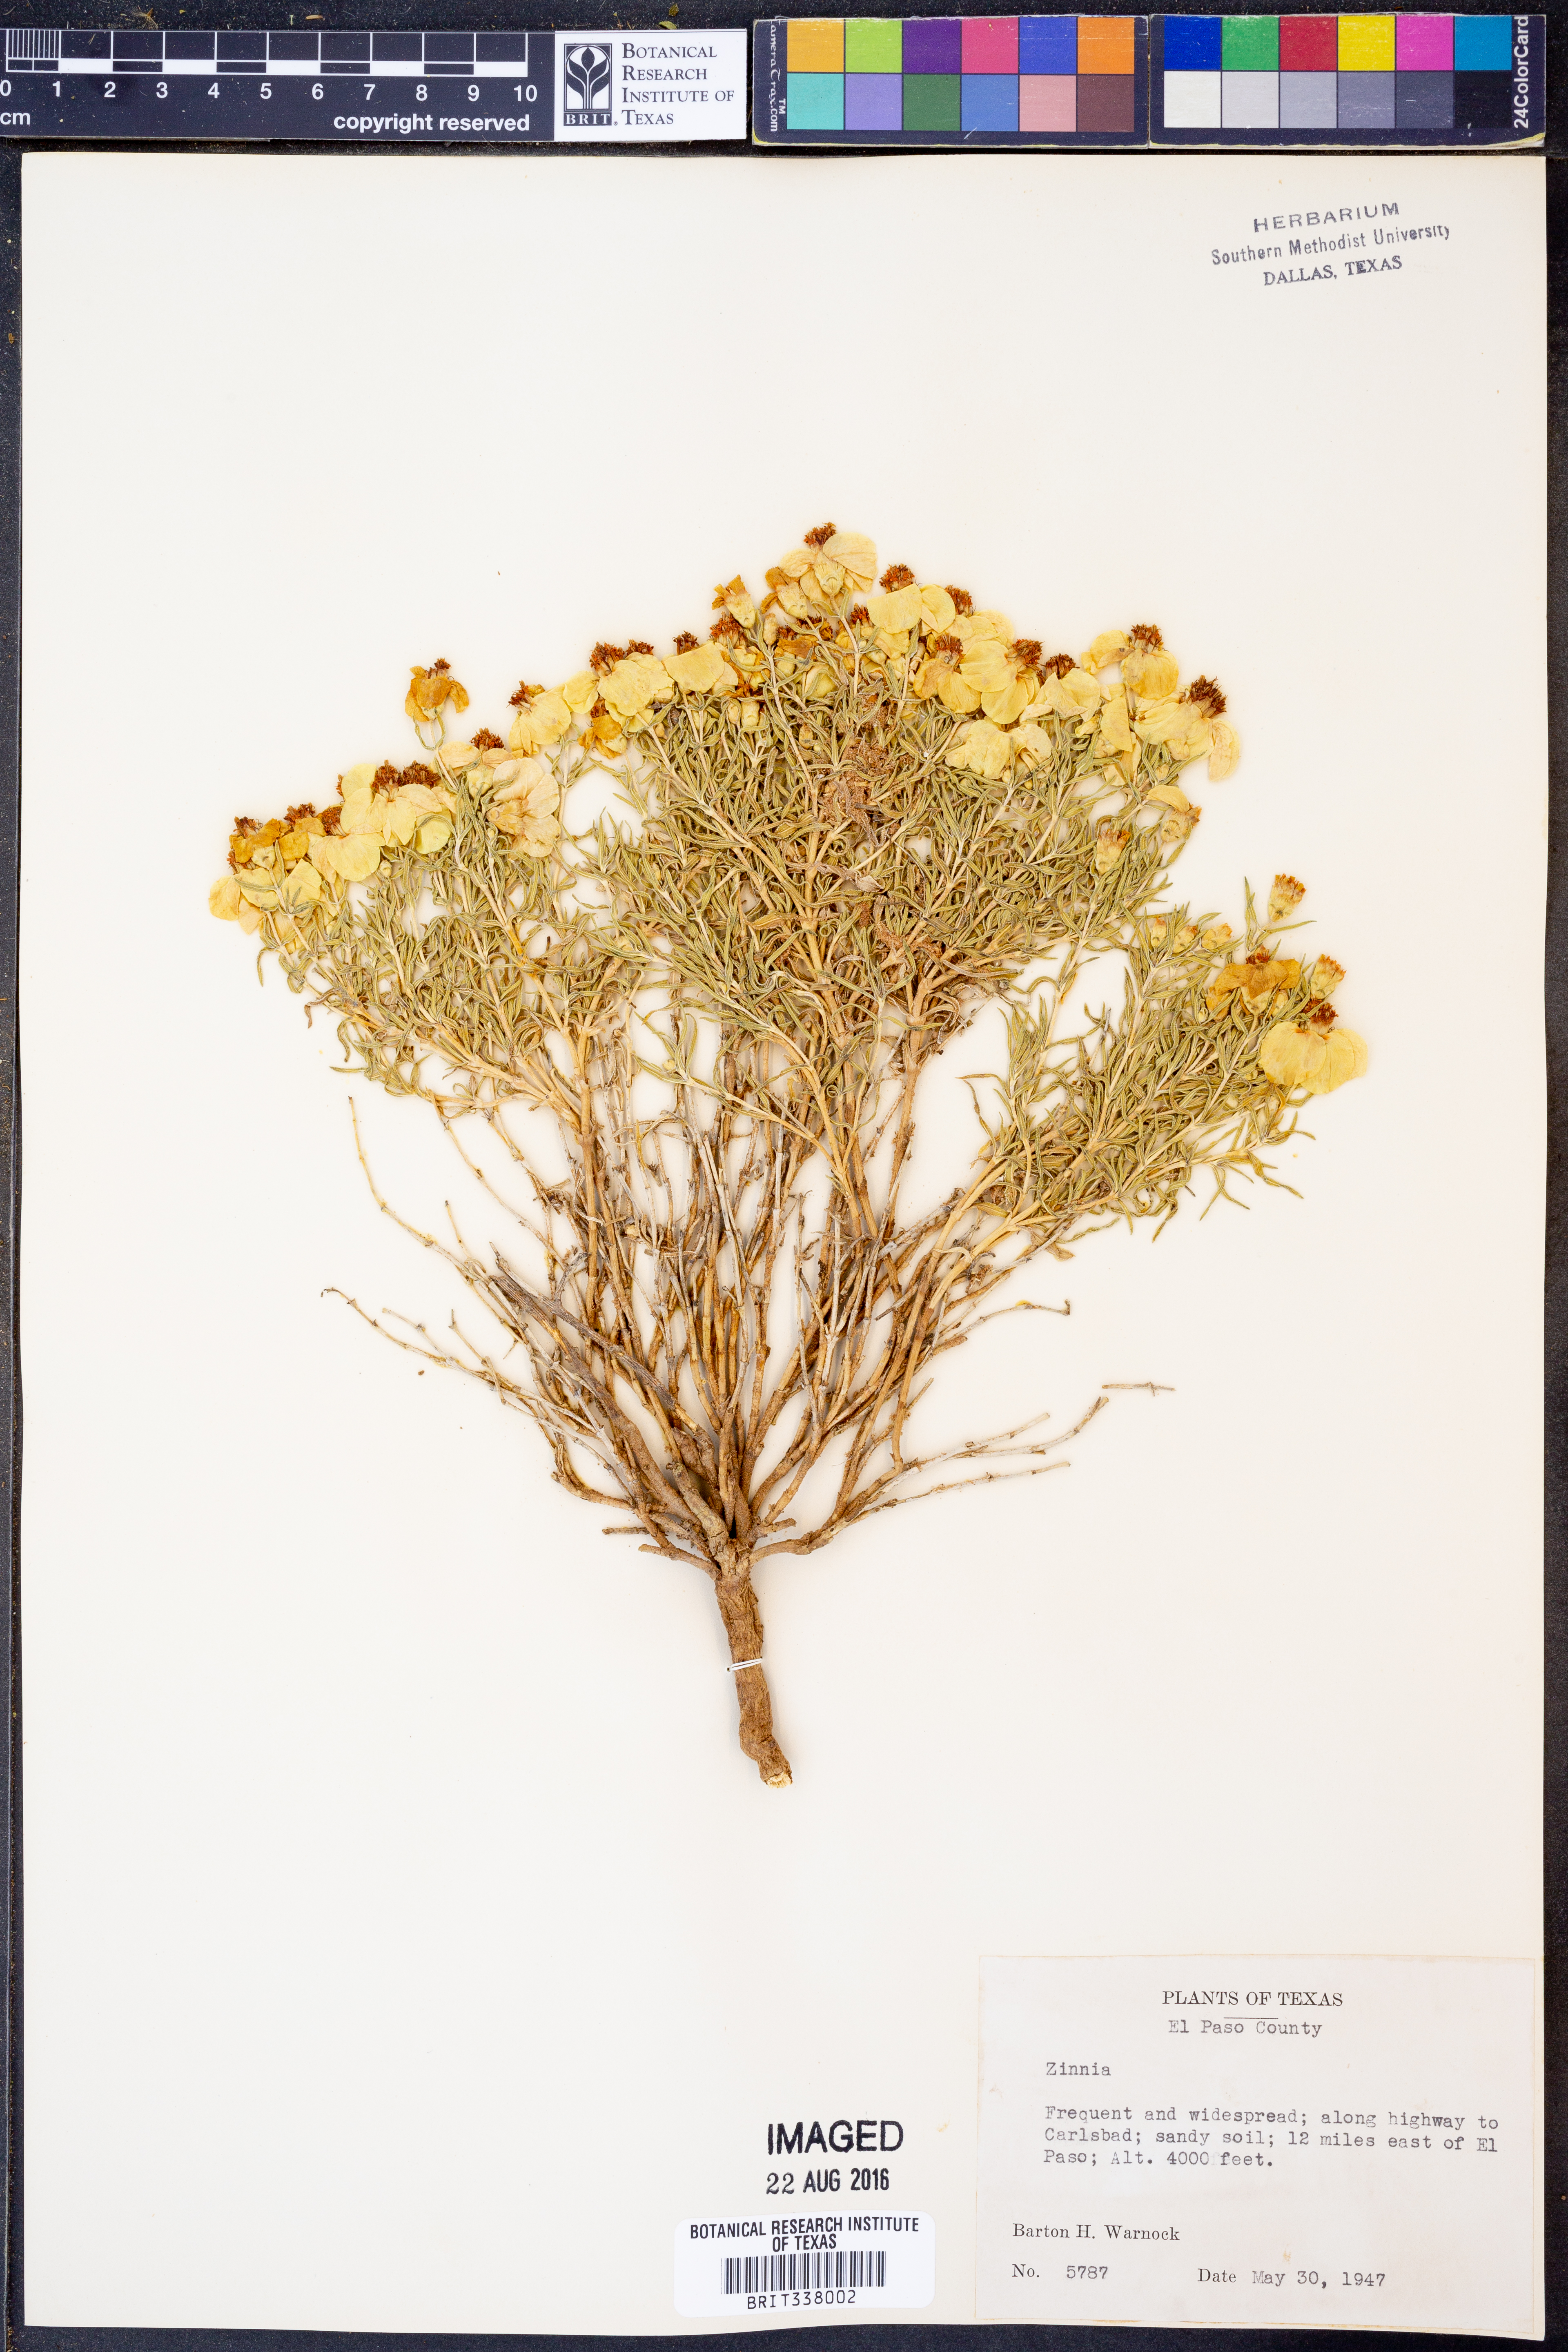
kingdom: Plantae
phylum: Tracheophyta
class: Magnoliopsida
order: Asterales
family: Asteraceae
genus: Zinnia
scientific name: Zinnia
